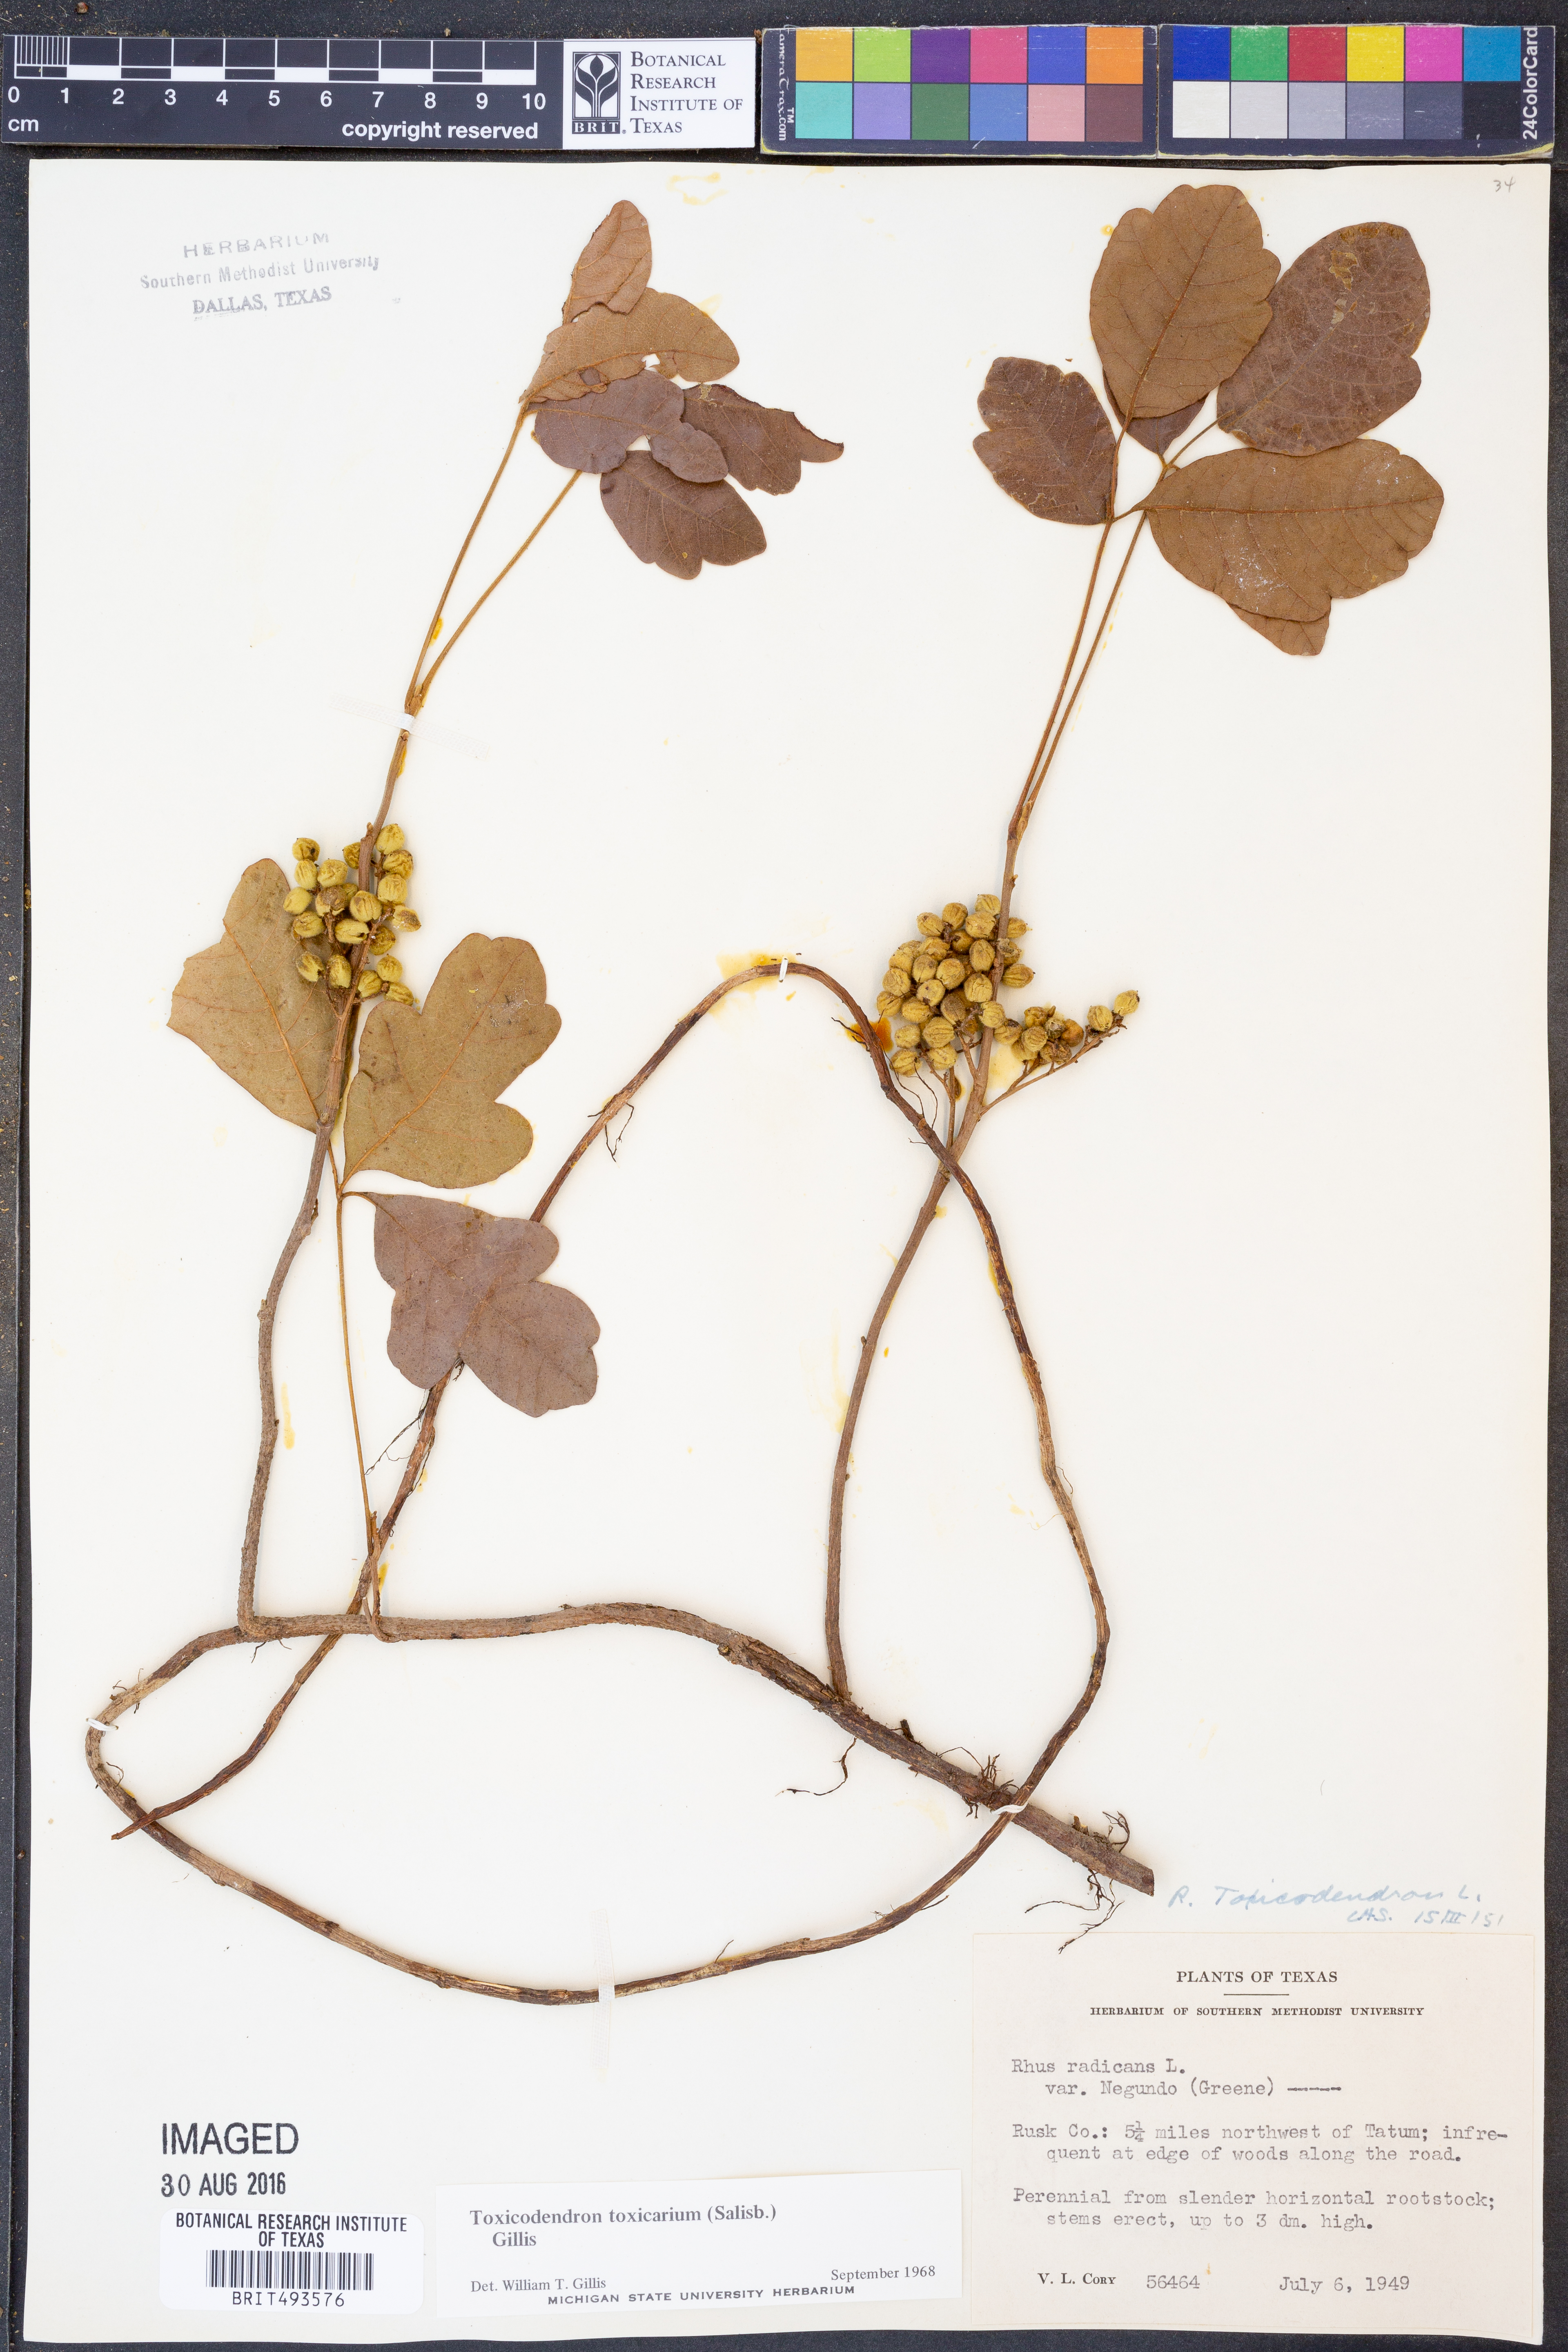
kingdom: Plantae
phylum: Tracheophyta
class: Magnoliopsida
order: Sapindales
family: Anacardiaceae
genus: Toxicodendron
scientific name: Toxicodendron pubescens
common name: Eastern poison-oak
